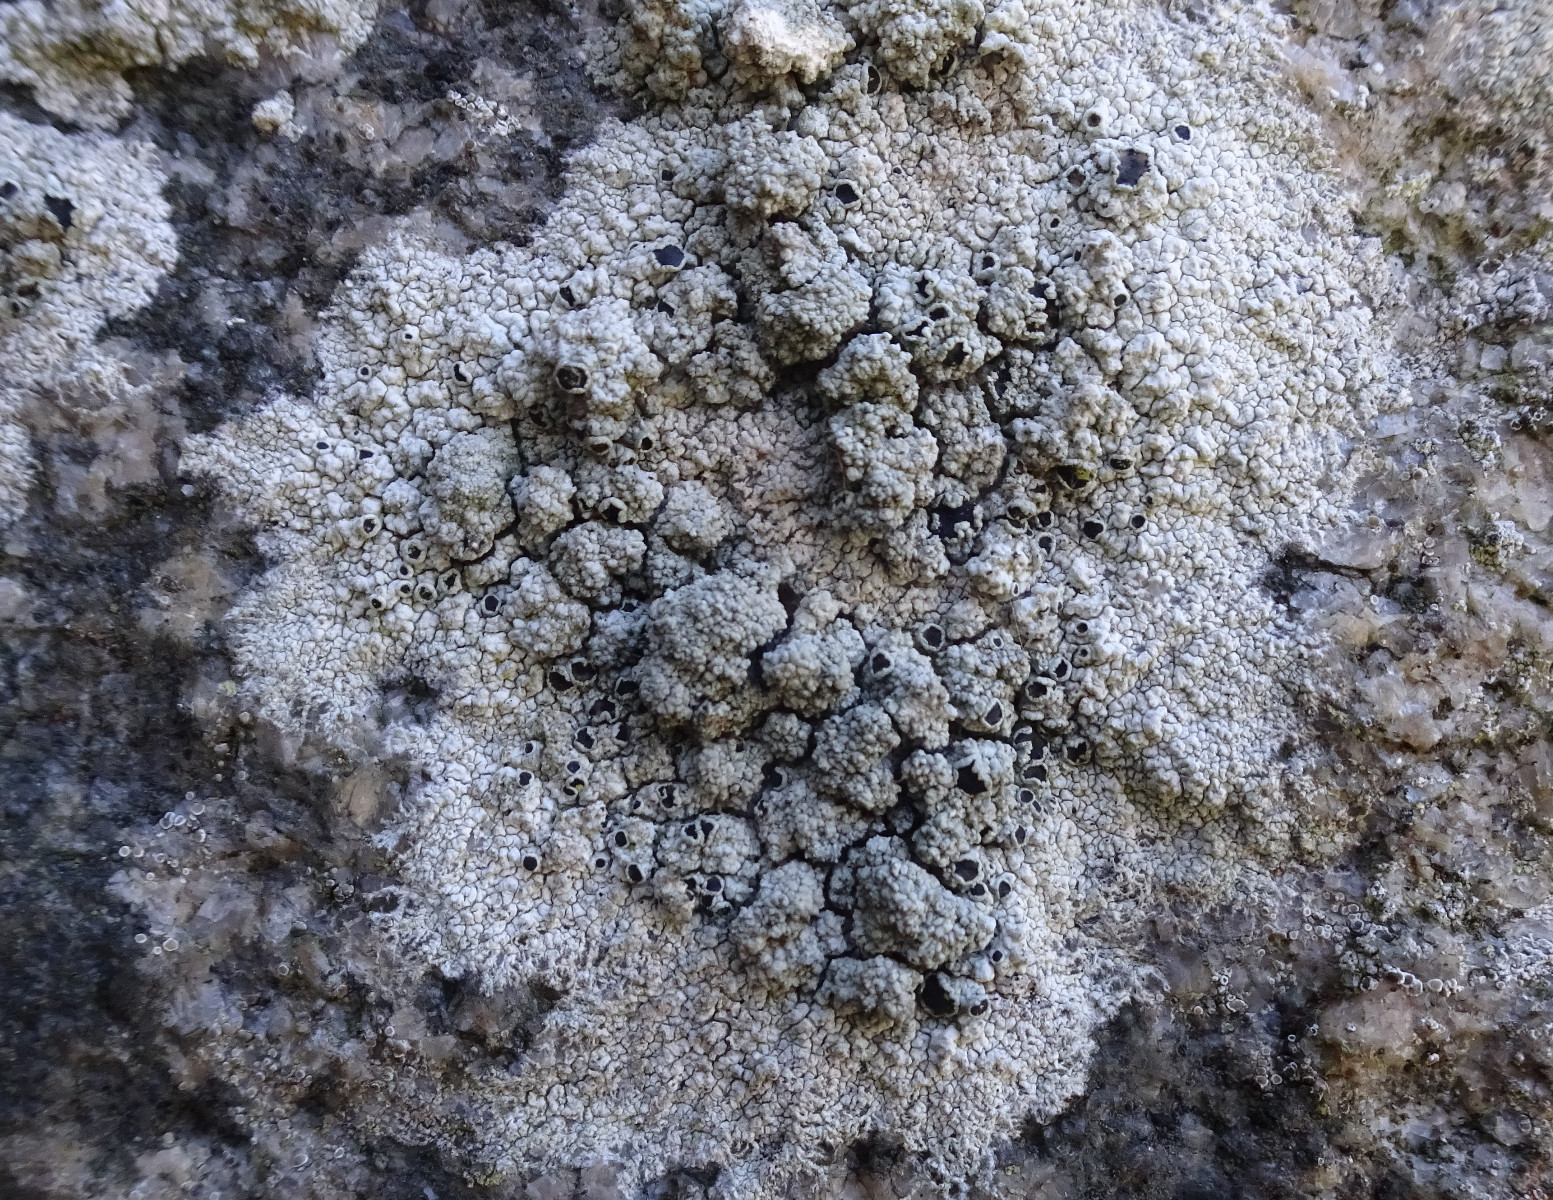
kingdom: Fungi
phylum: Ascomycota
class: Lecanoromycetes
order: Lecanorales
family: Tephromelataceae
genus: Tephromela
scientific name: Tephromela atra
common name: sortfrugtet kantskivelav
